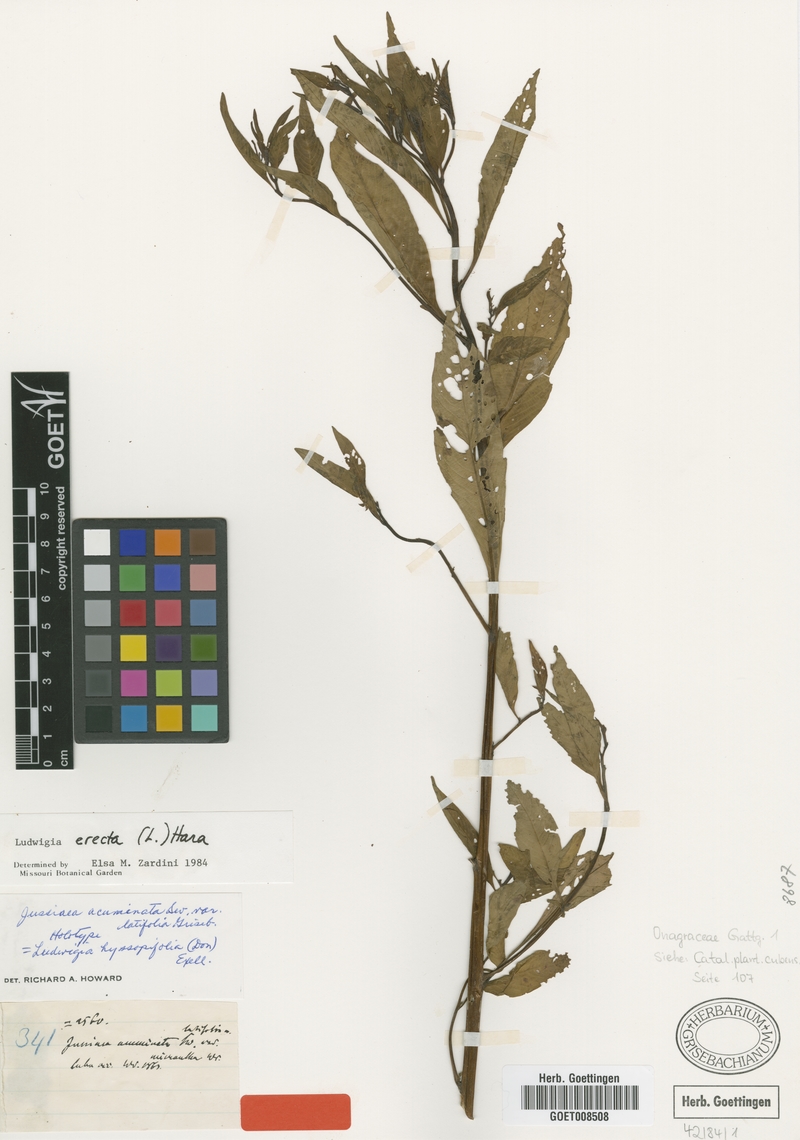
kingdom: Plantae
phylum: Tracheophyta
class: Magnoliopsida
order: Myrtales
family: Onagraceae
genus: Ludwigia
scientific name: Ludwigia erecta
